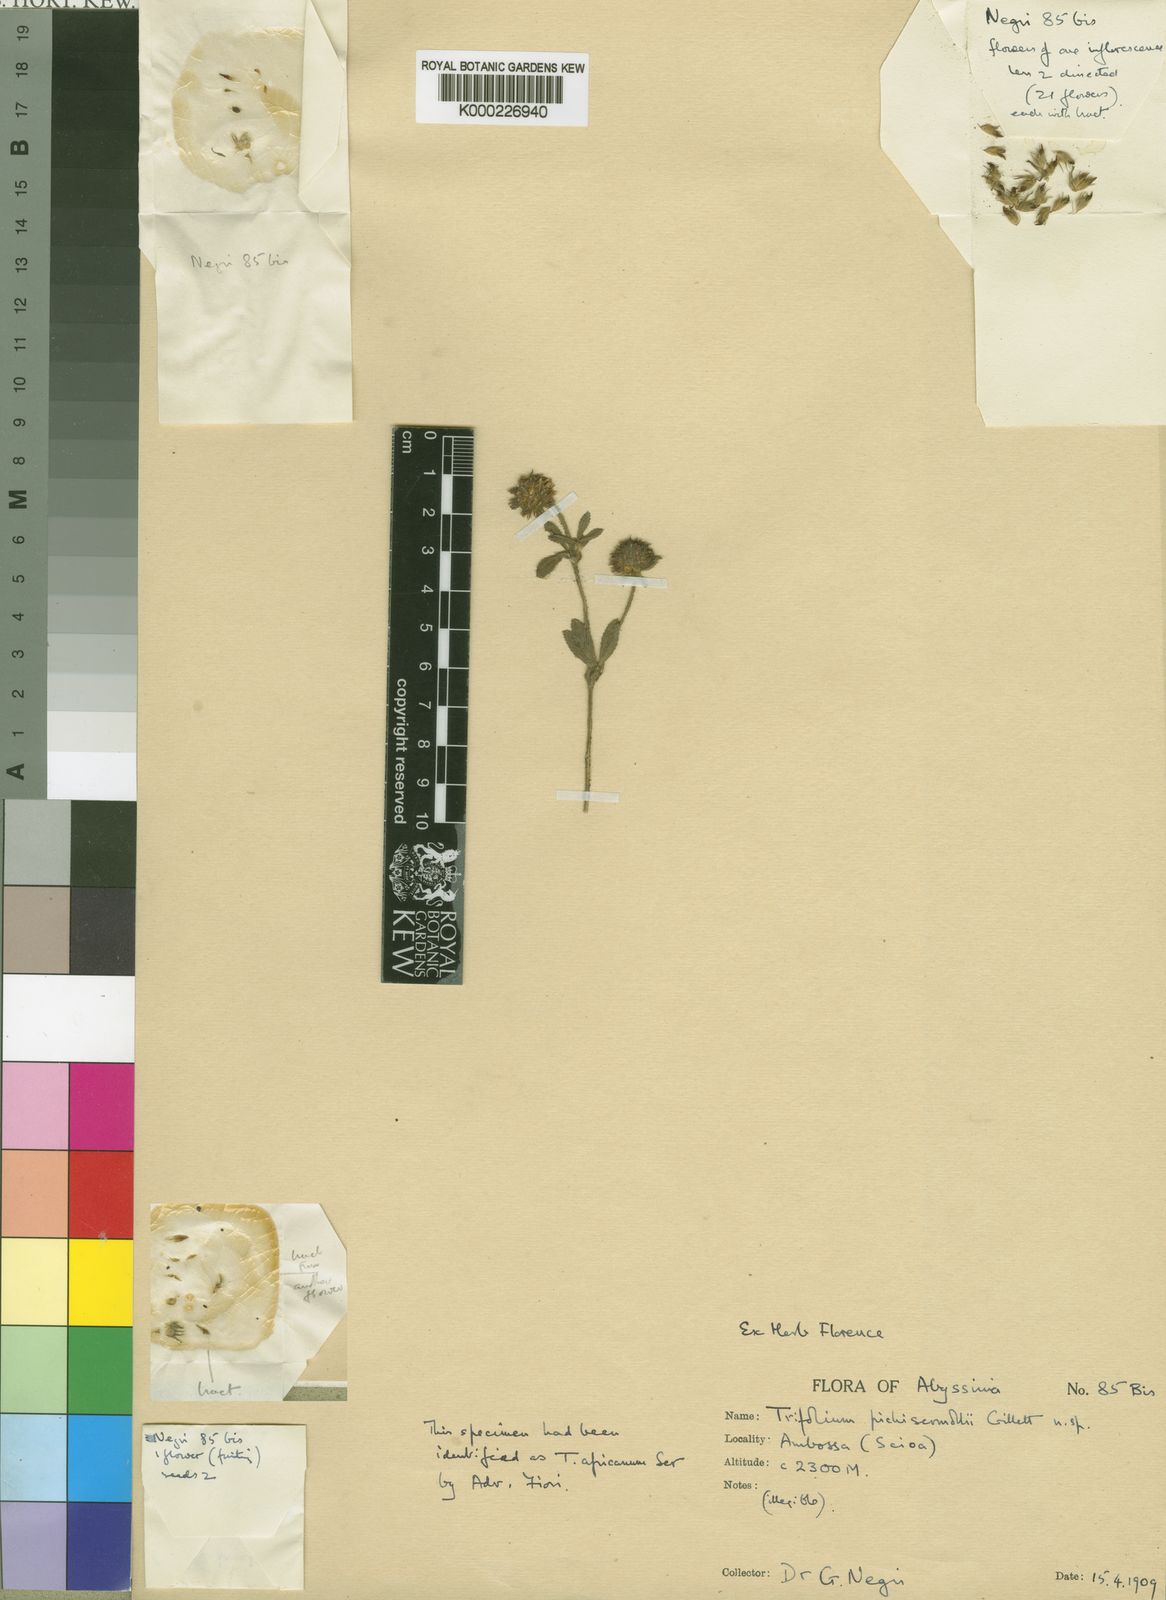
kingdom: Plantae
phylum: Tracheophyta
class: Magnoliopsida
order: Fabales
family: Fabaceae
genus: Trifolium
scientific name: Trifolium pichisermollii
